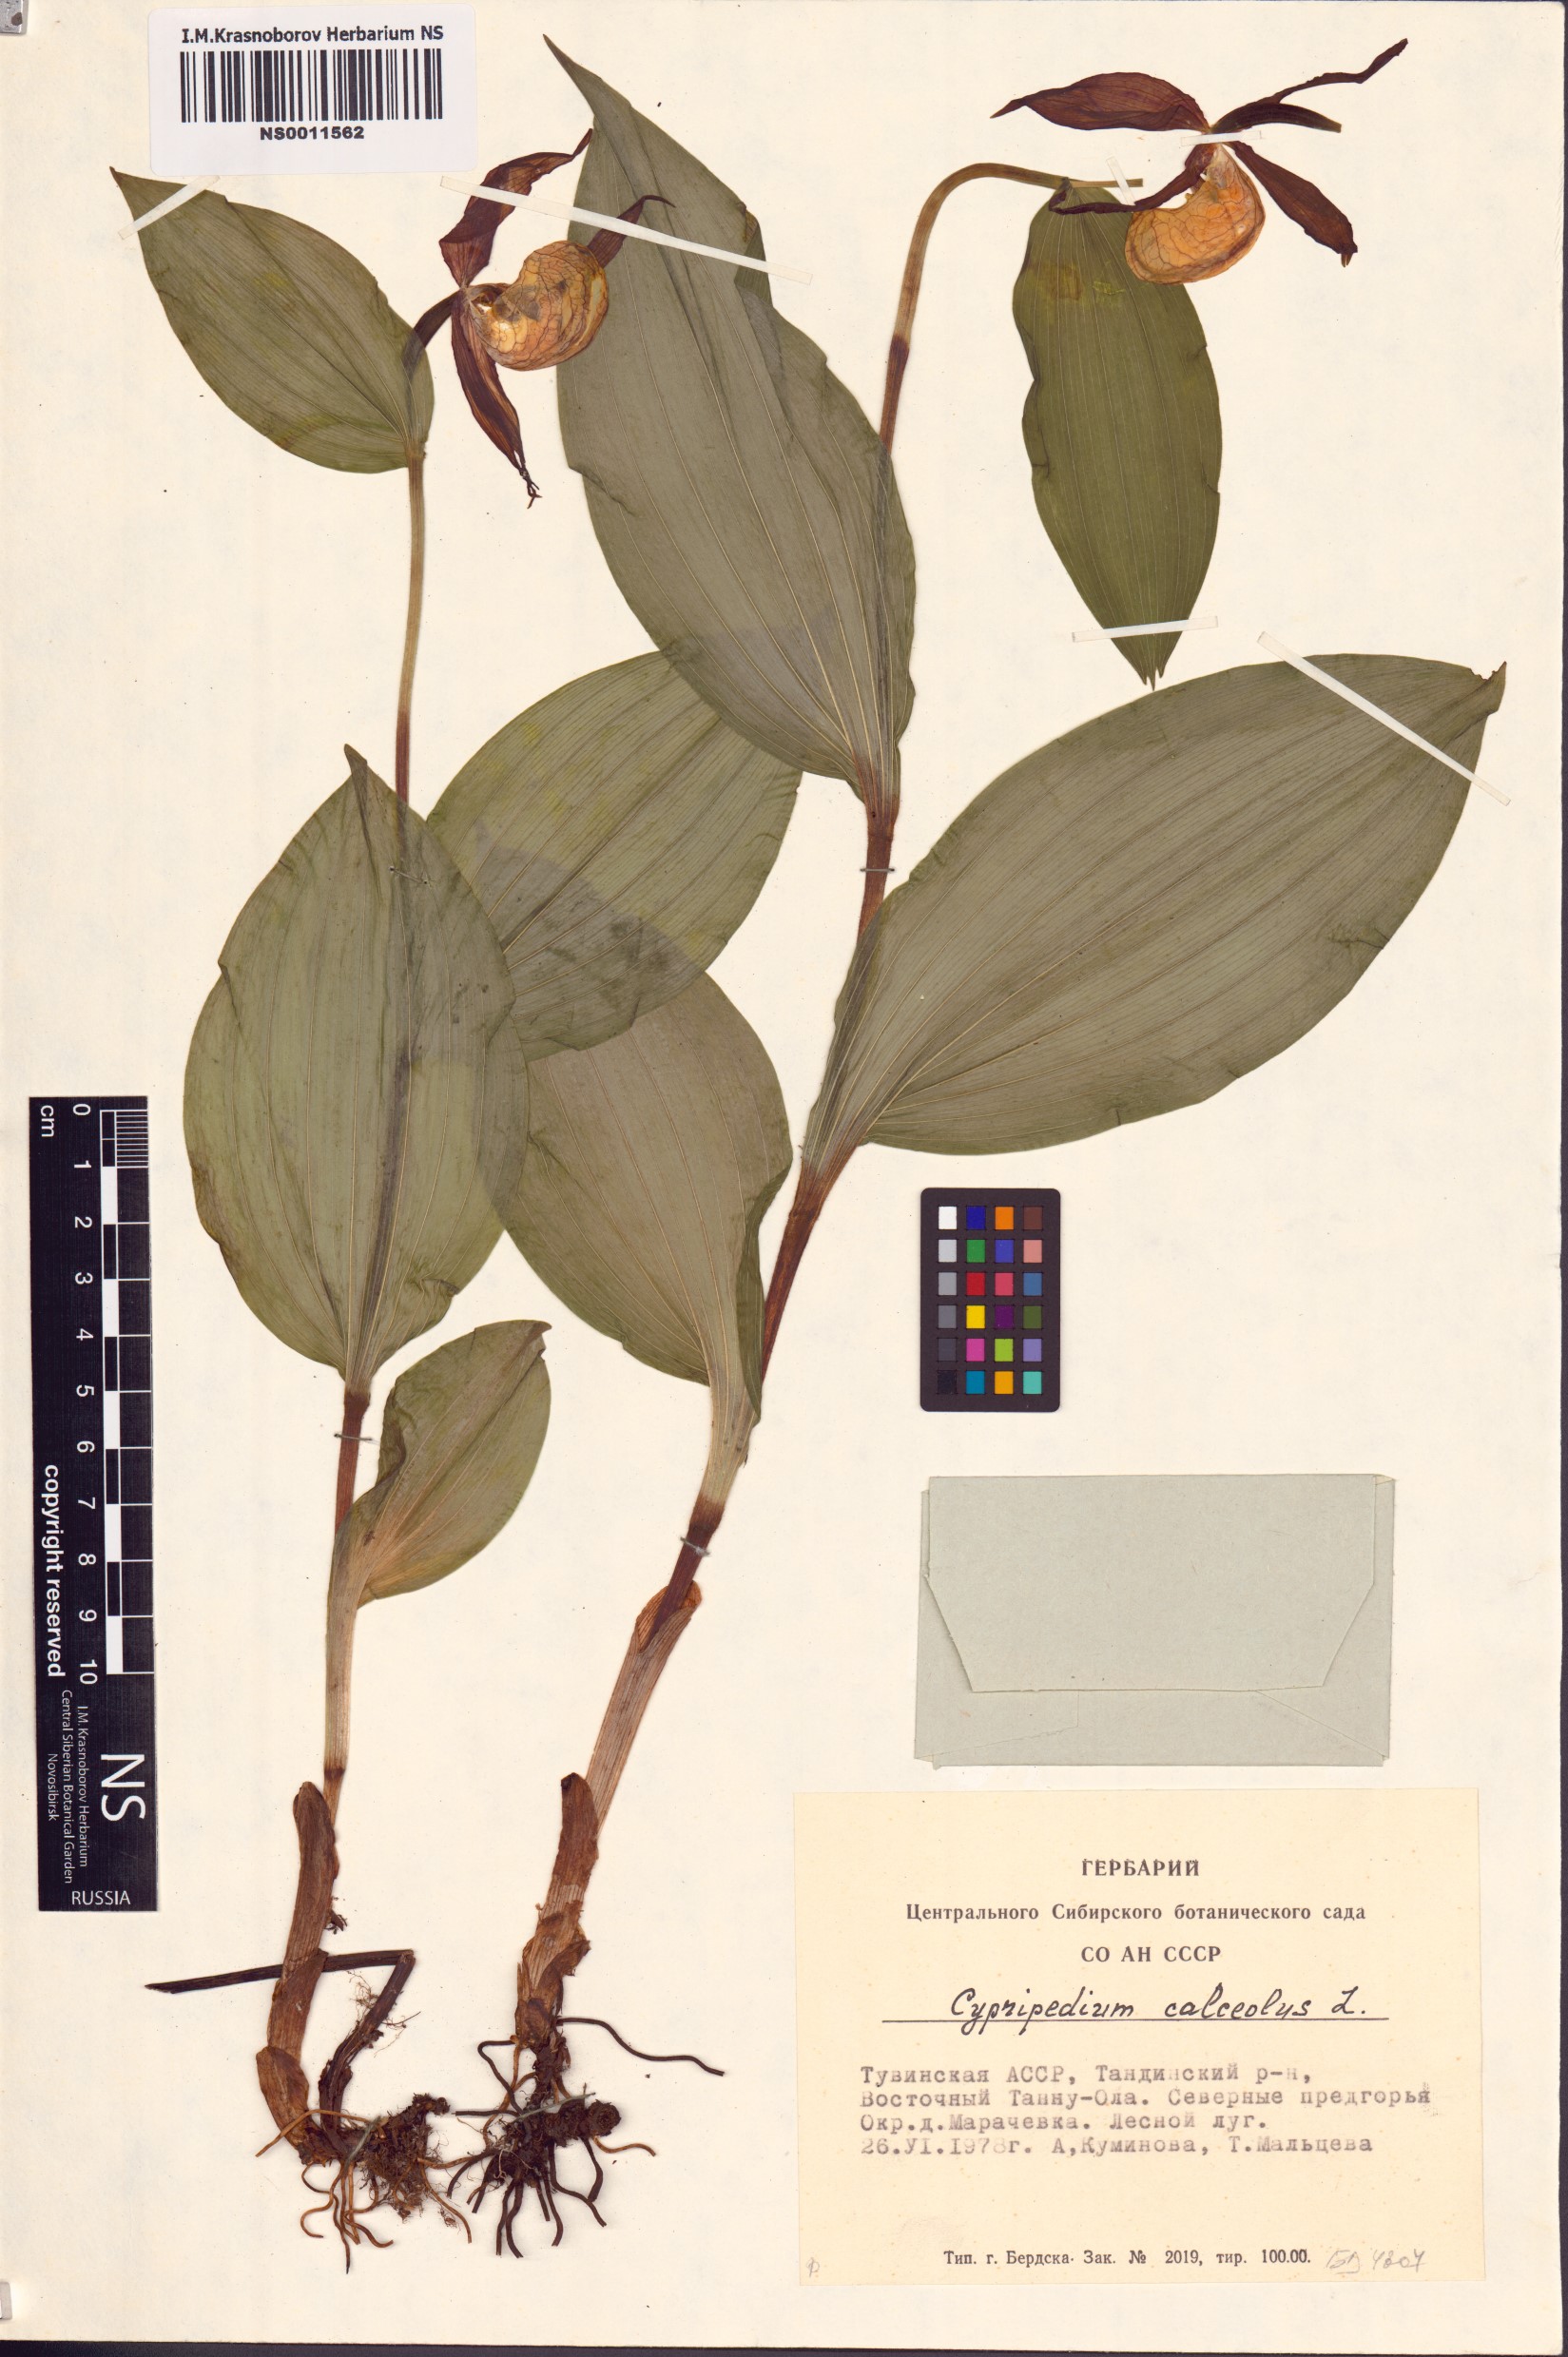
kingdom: Plantae
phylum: Tracheophyta
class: Liliopsida
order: Asparagales
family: Orchidaceae
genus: Cypripedium
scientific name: Cypripedium calceolus
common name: Lady's-slipper
